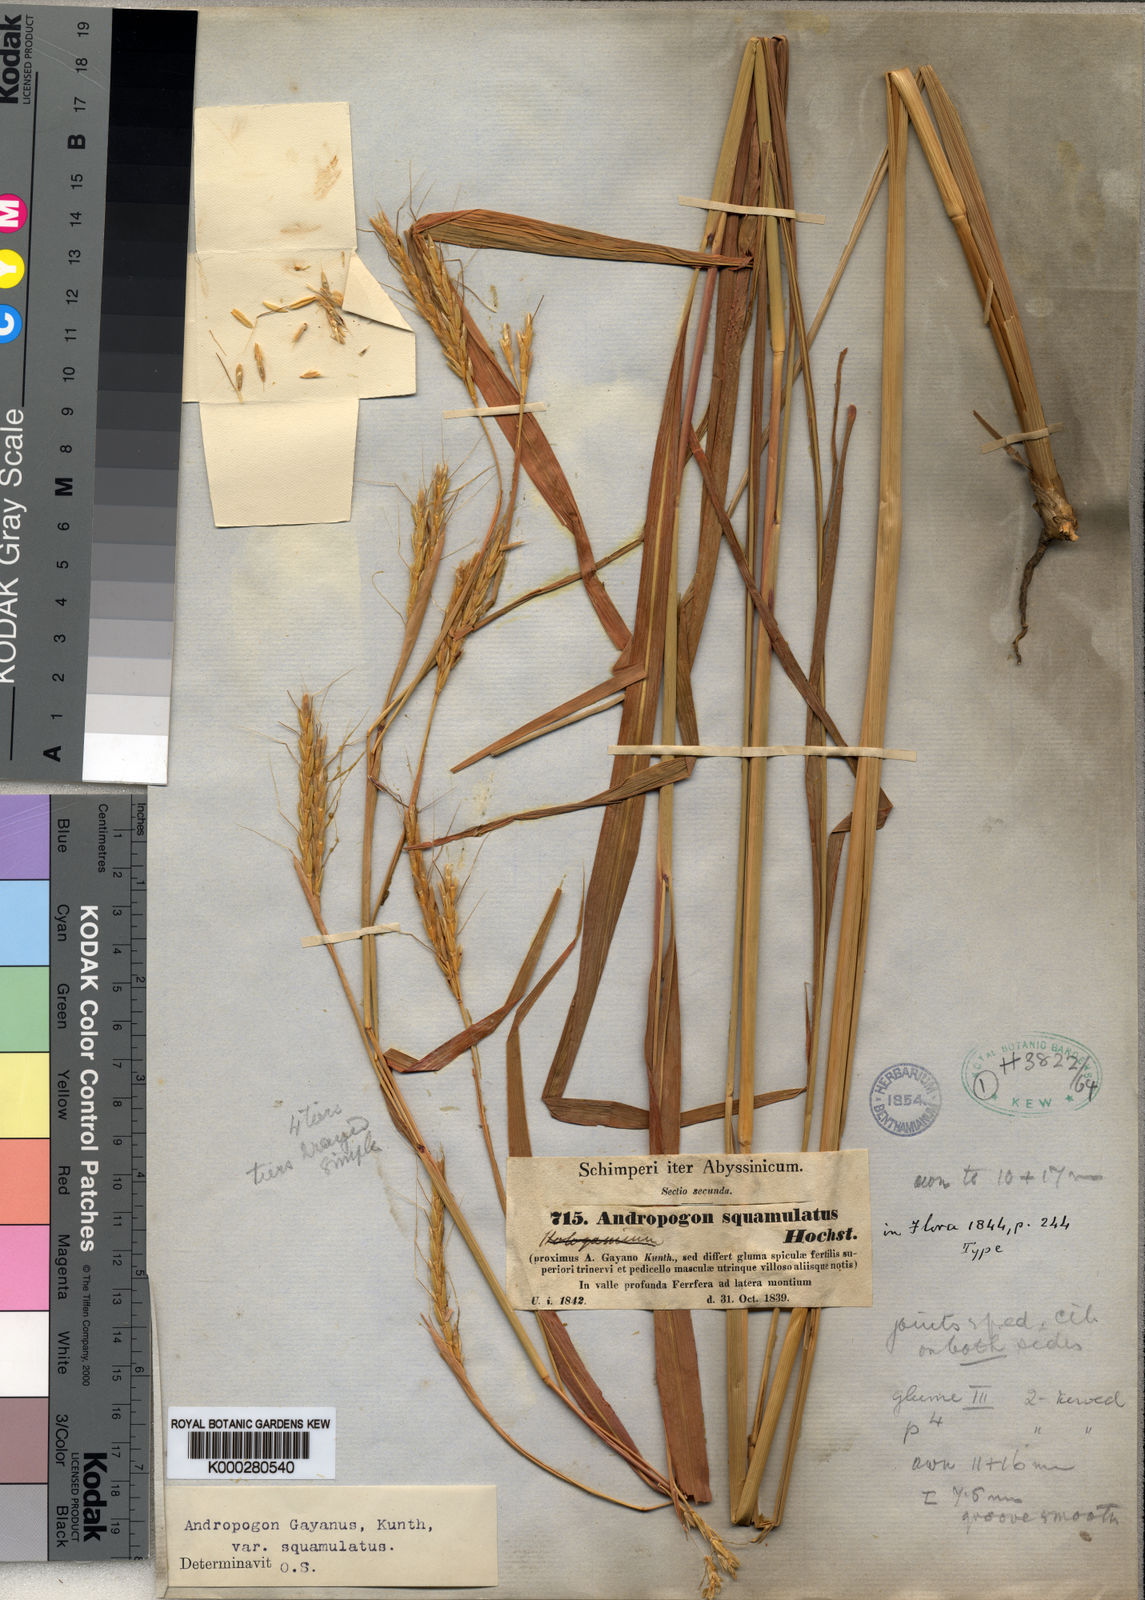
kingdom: Plantae
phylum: Tracheophyta
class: Liliopsida
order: Poales
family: Poaceae
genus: Andropogon
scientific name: Andropogon gayanus
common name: Tambuki grass
